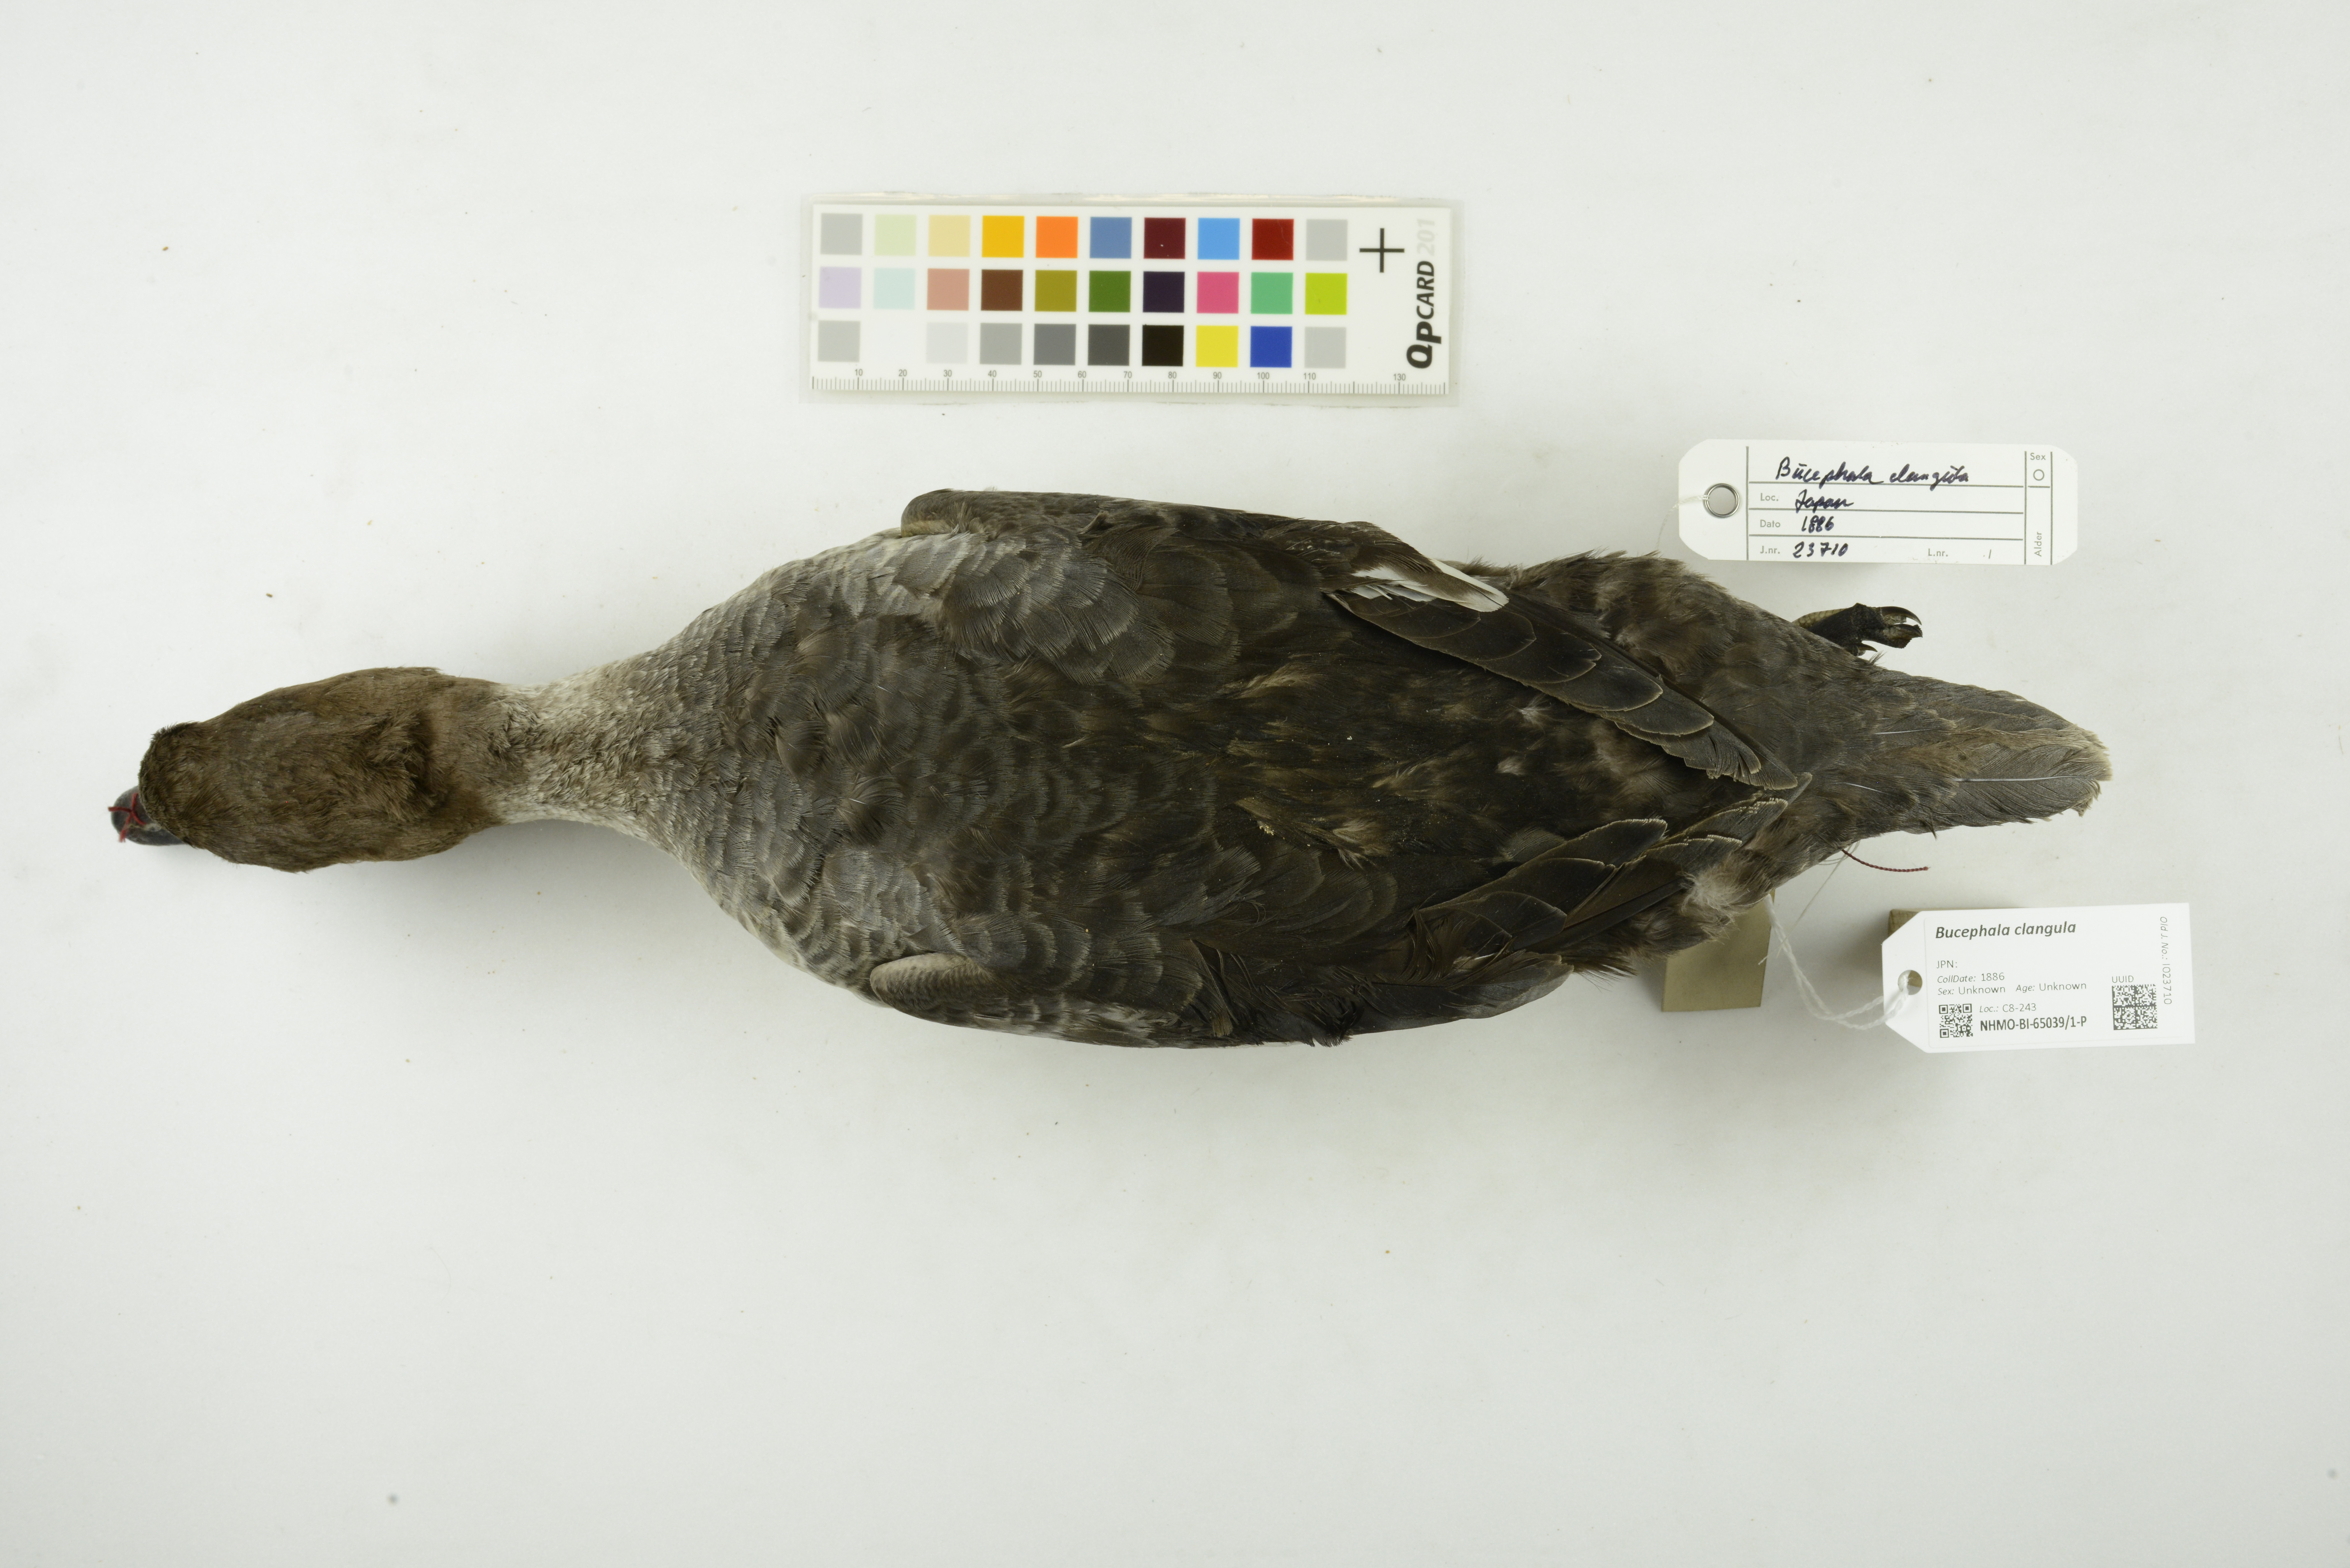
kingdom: Animalia
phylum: Chordata
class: Aves
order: Anseriformes
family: Anatidae
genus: Bucephala
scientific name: Bucephala clangula
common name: Common goldeneye
